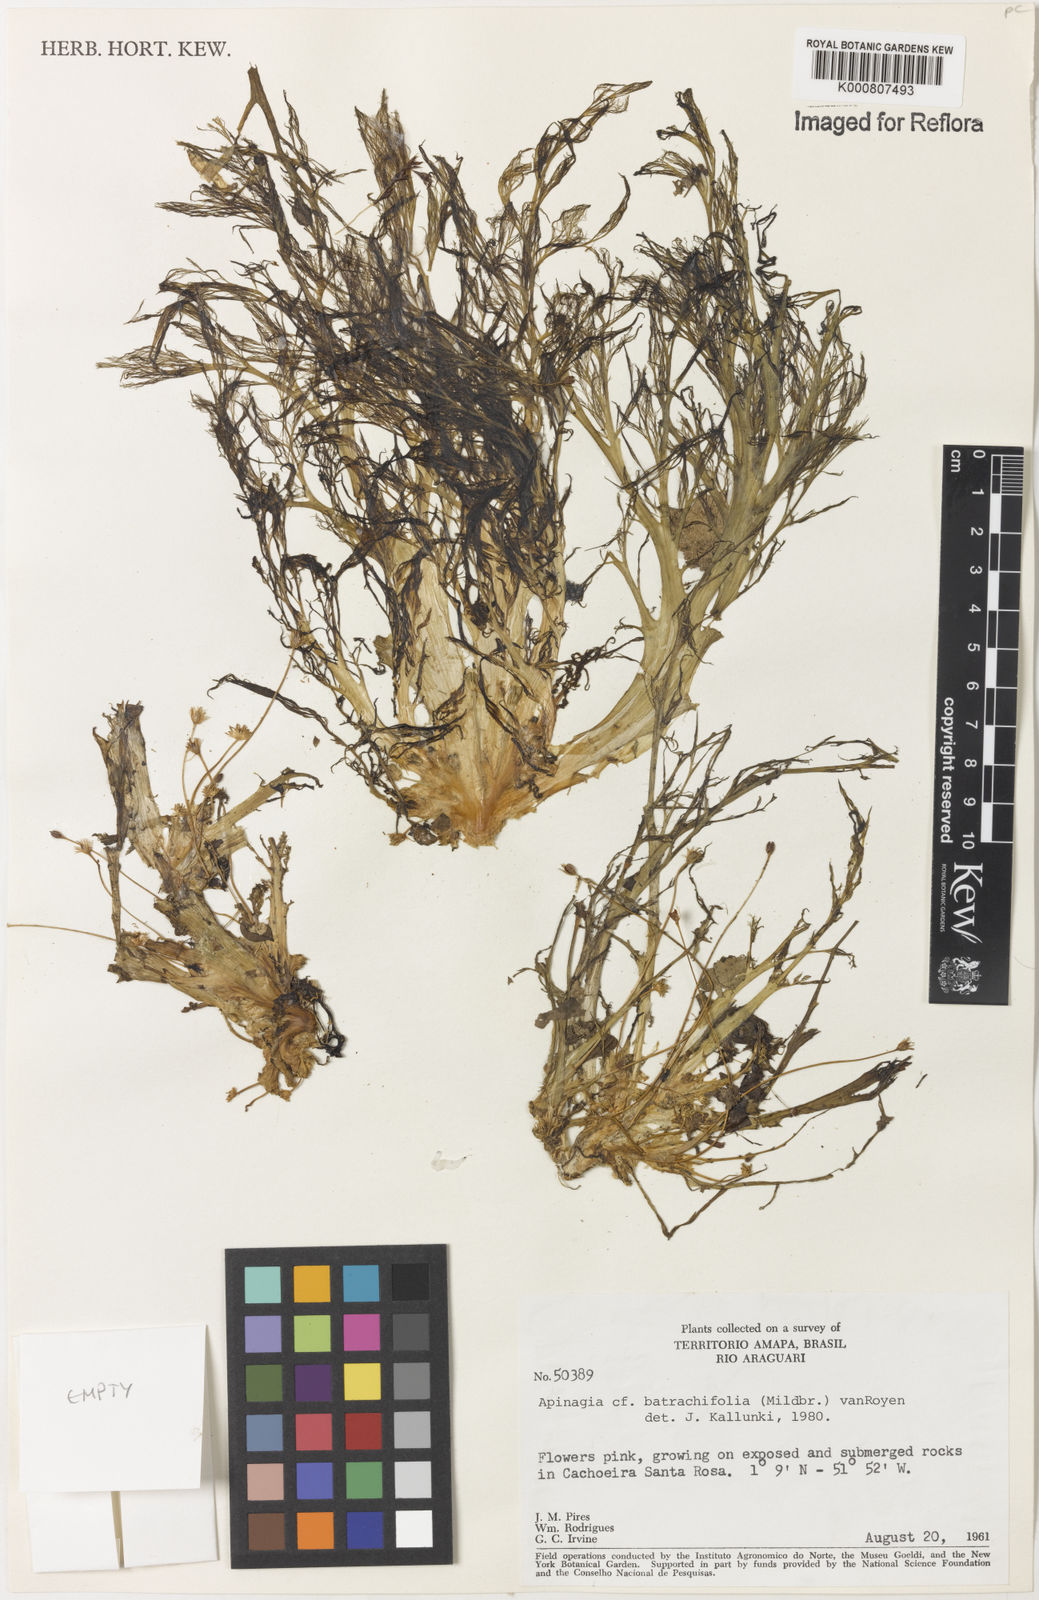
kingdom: Plantae
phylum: Tracheophyta
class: Magnoliopsida
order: Malpighiales
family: Podostemaceae
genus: Rhyncholacis
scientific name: Rhyncholacis
